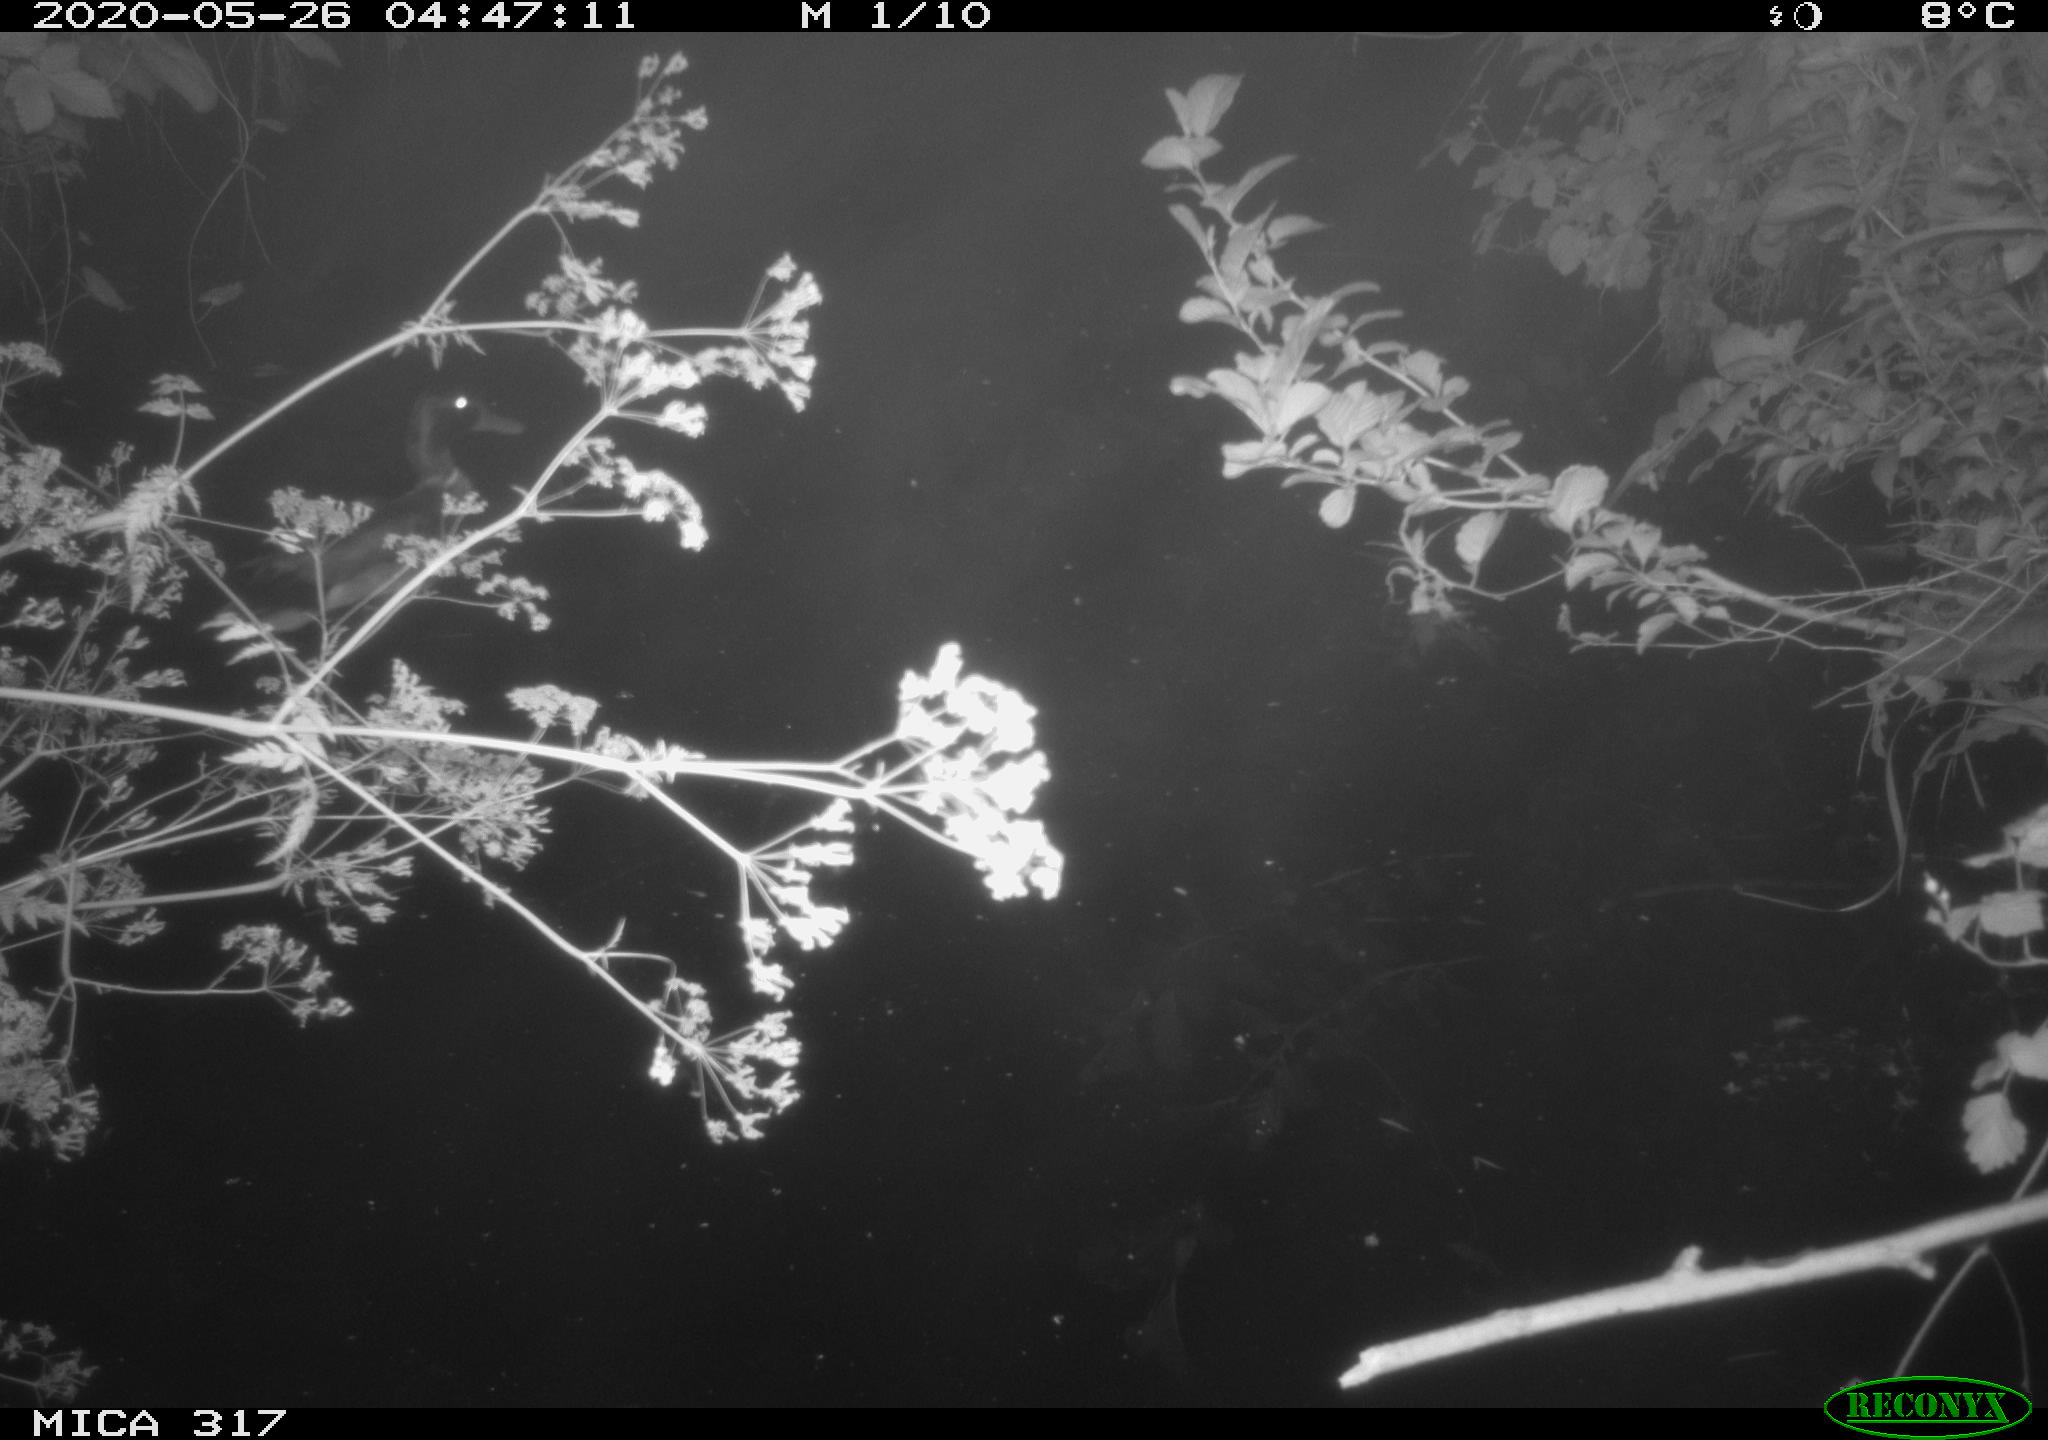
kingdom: Animalia
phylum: Chordata
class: Aves
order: Anseriformes
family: Anatidae
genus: Anas
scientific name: Anas platyrhynchos
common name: Mallard
